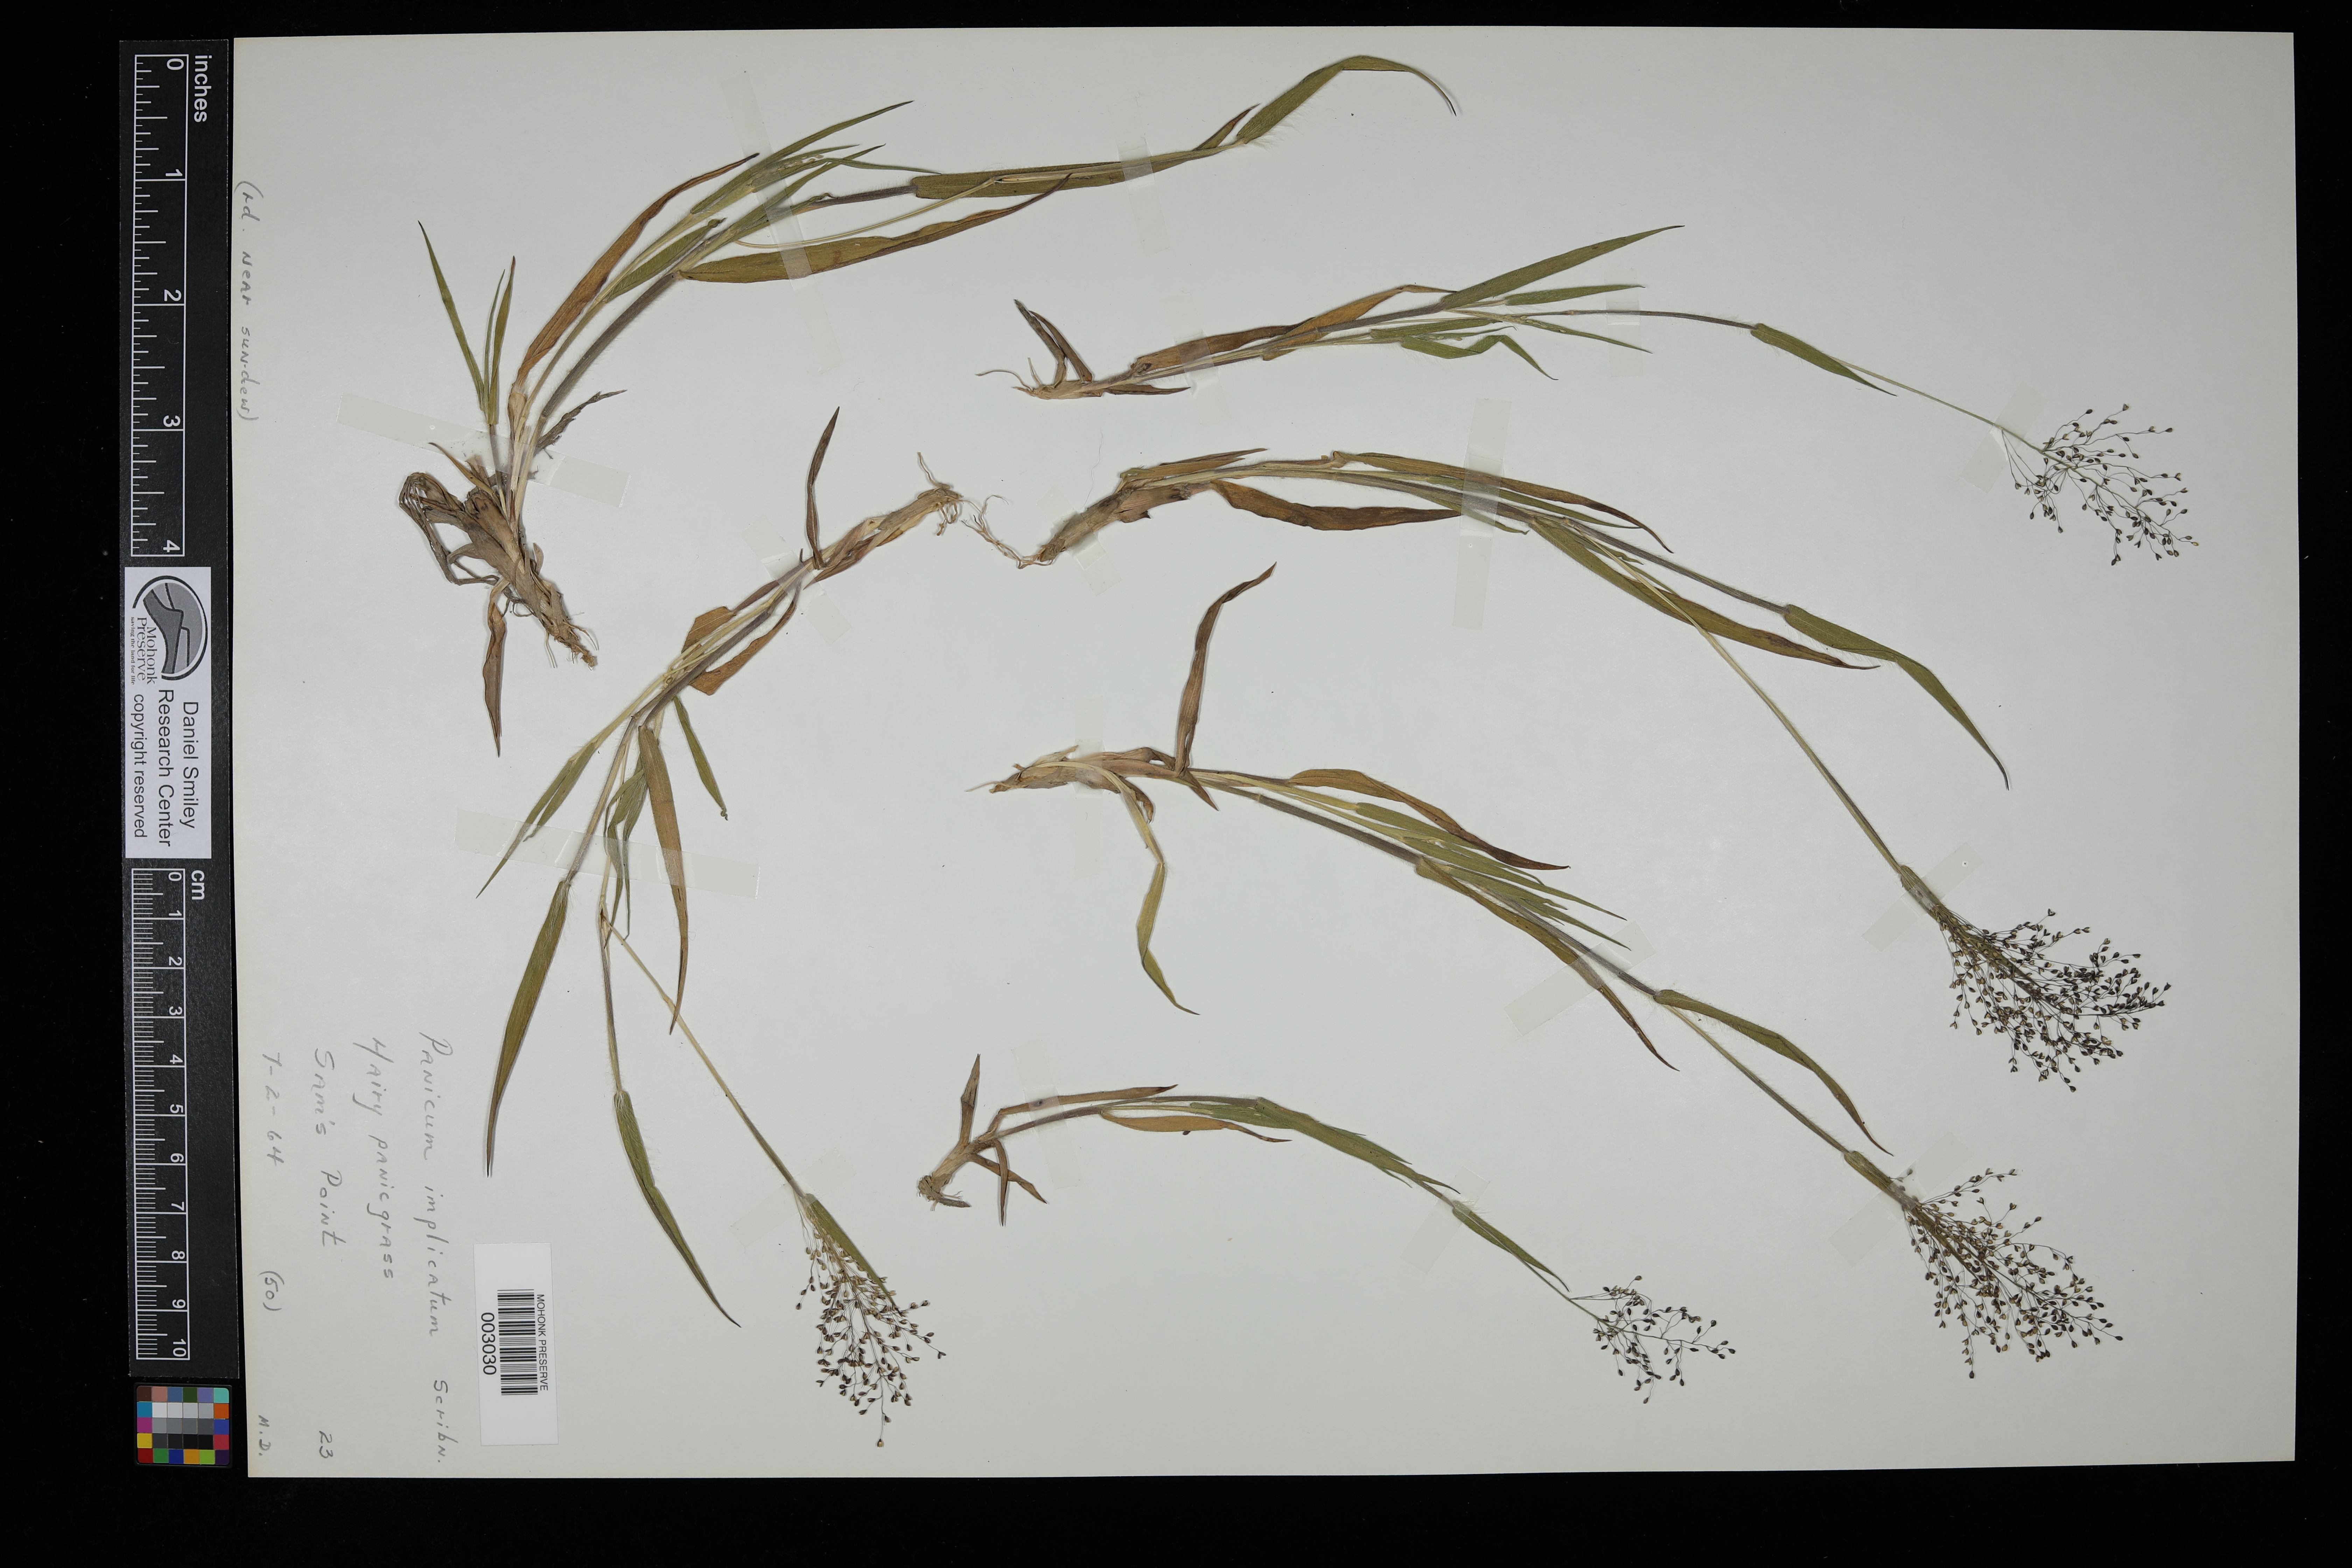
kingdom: Plantae
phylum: Tracheophyta
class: Liliopsida
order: Poales
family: Poaceae
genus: Dichanthelium
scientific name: Dichanthelium acuminatum
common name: Hairy panic grass
